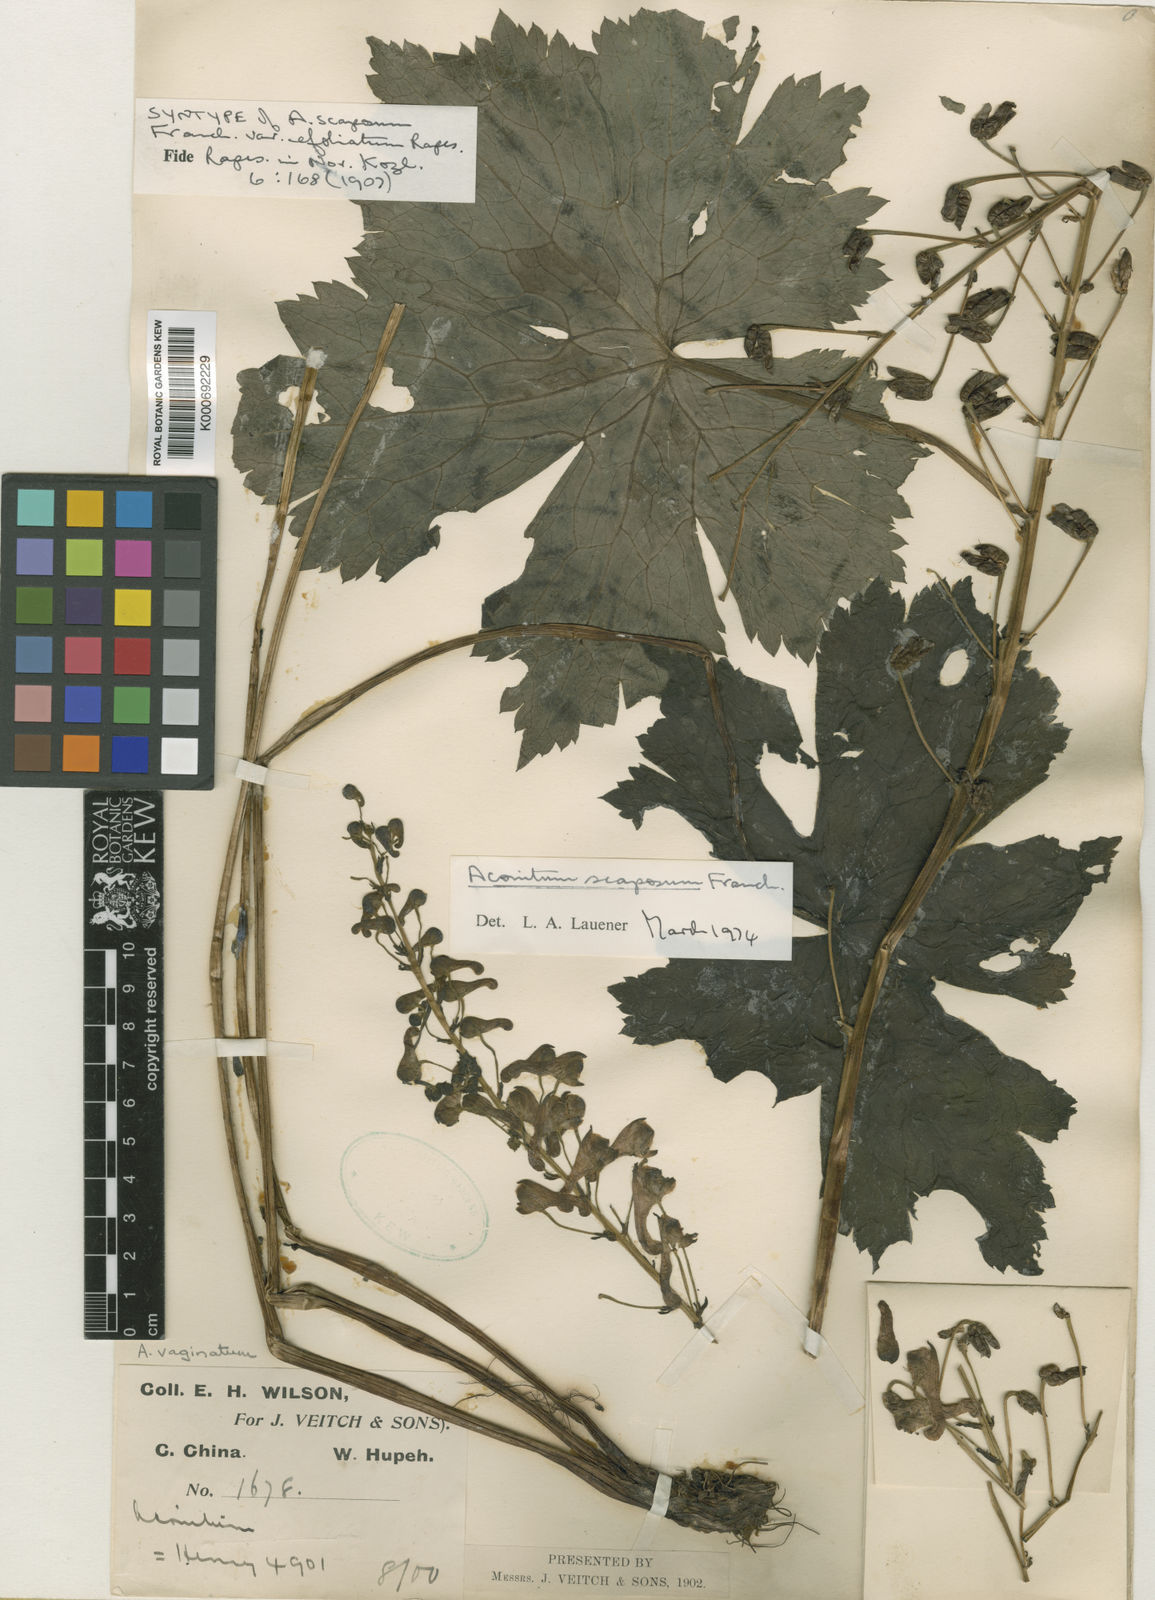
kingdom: Plantae
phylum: Tracheophyta
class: Magnoliopsida
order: Ranunculales
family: Ranunculaceae
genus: Aconitum
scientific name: Aconitum scaposum
